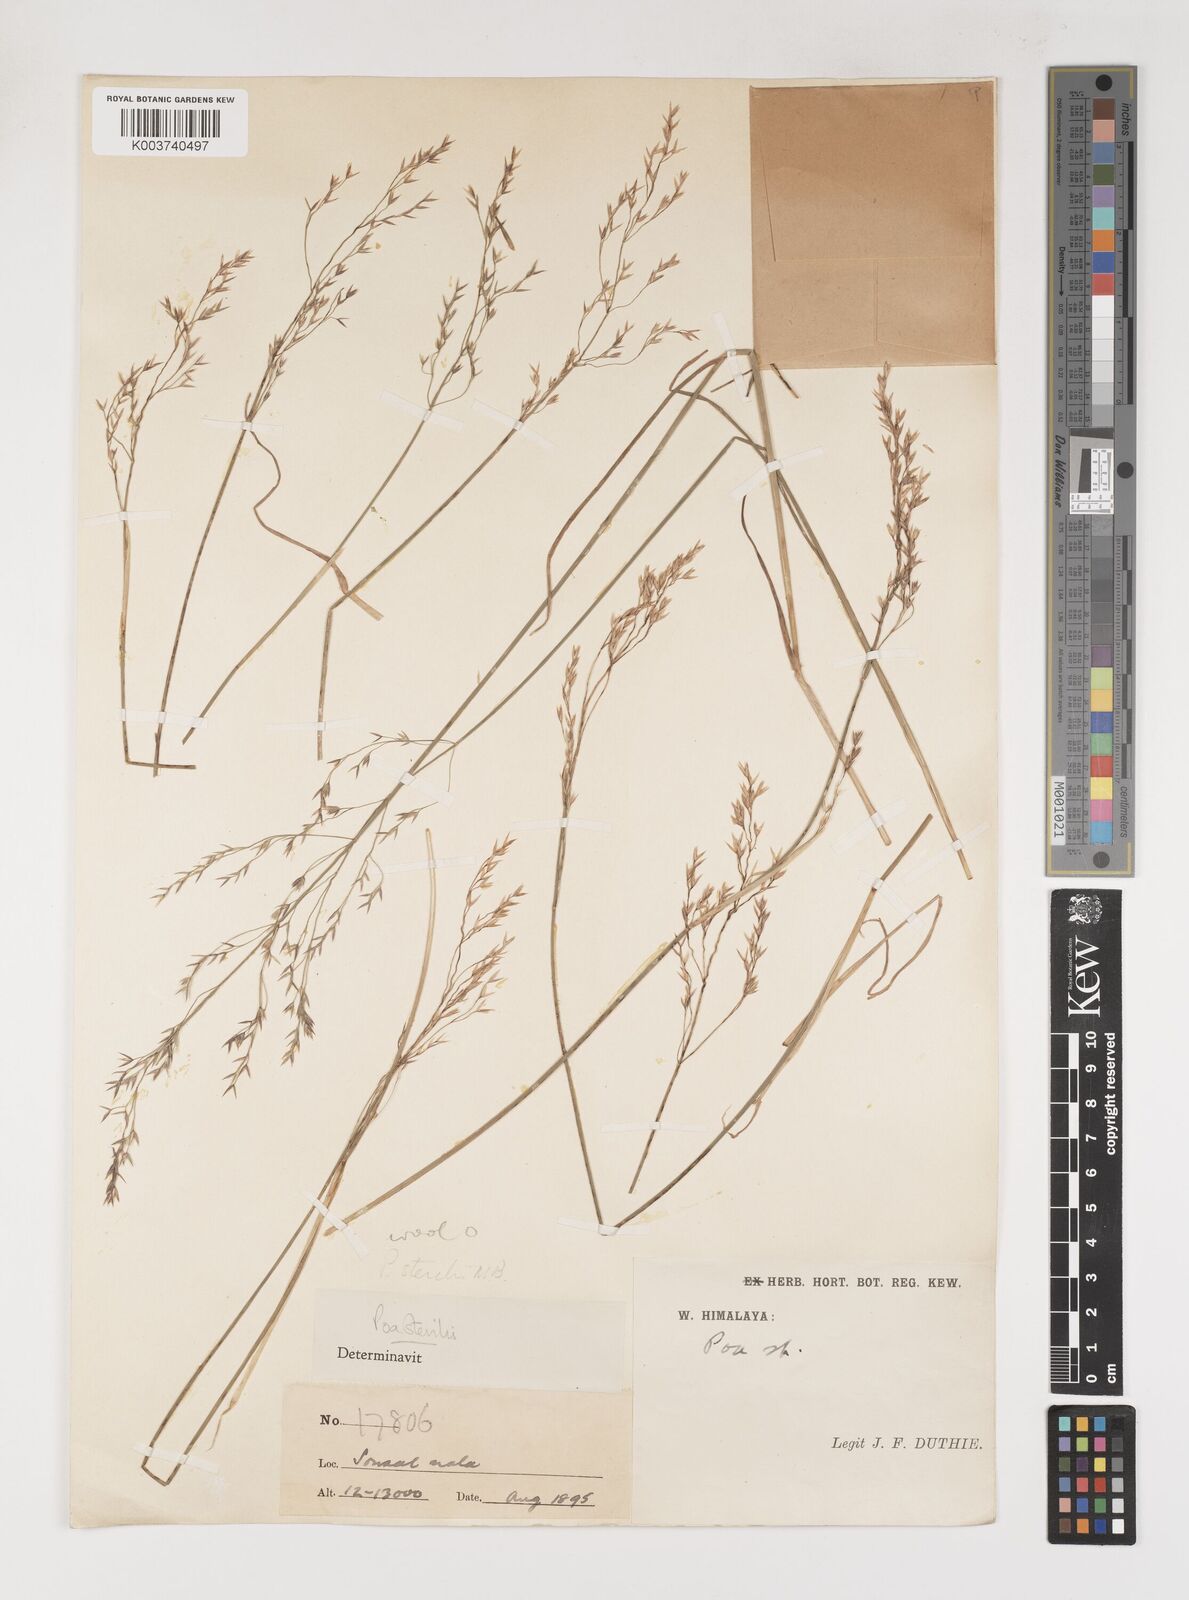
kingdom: Plantae
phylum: Tracheophyta
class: Liliopsida
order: Poales
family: Poaceae
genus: Poa
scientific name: Poa sterilis
